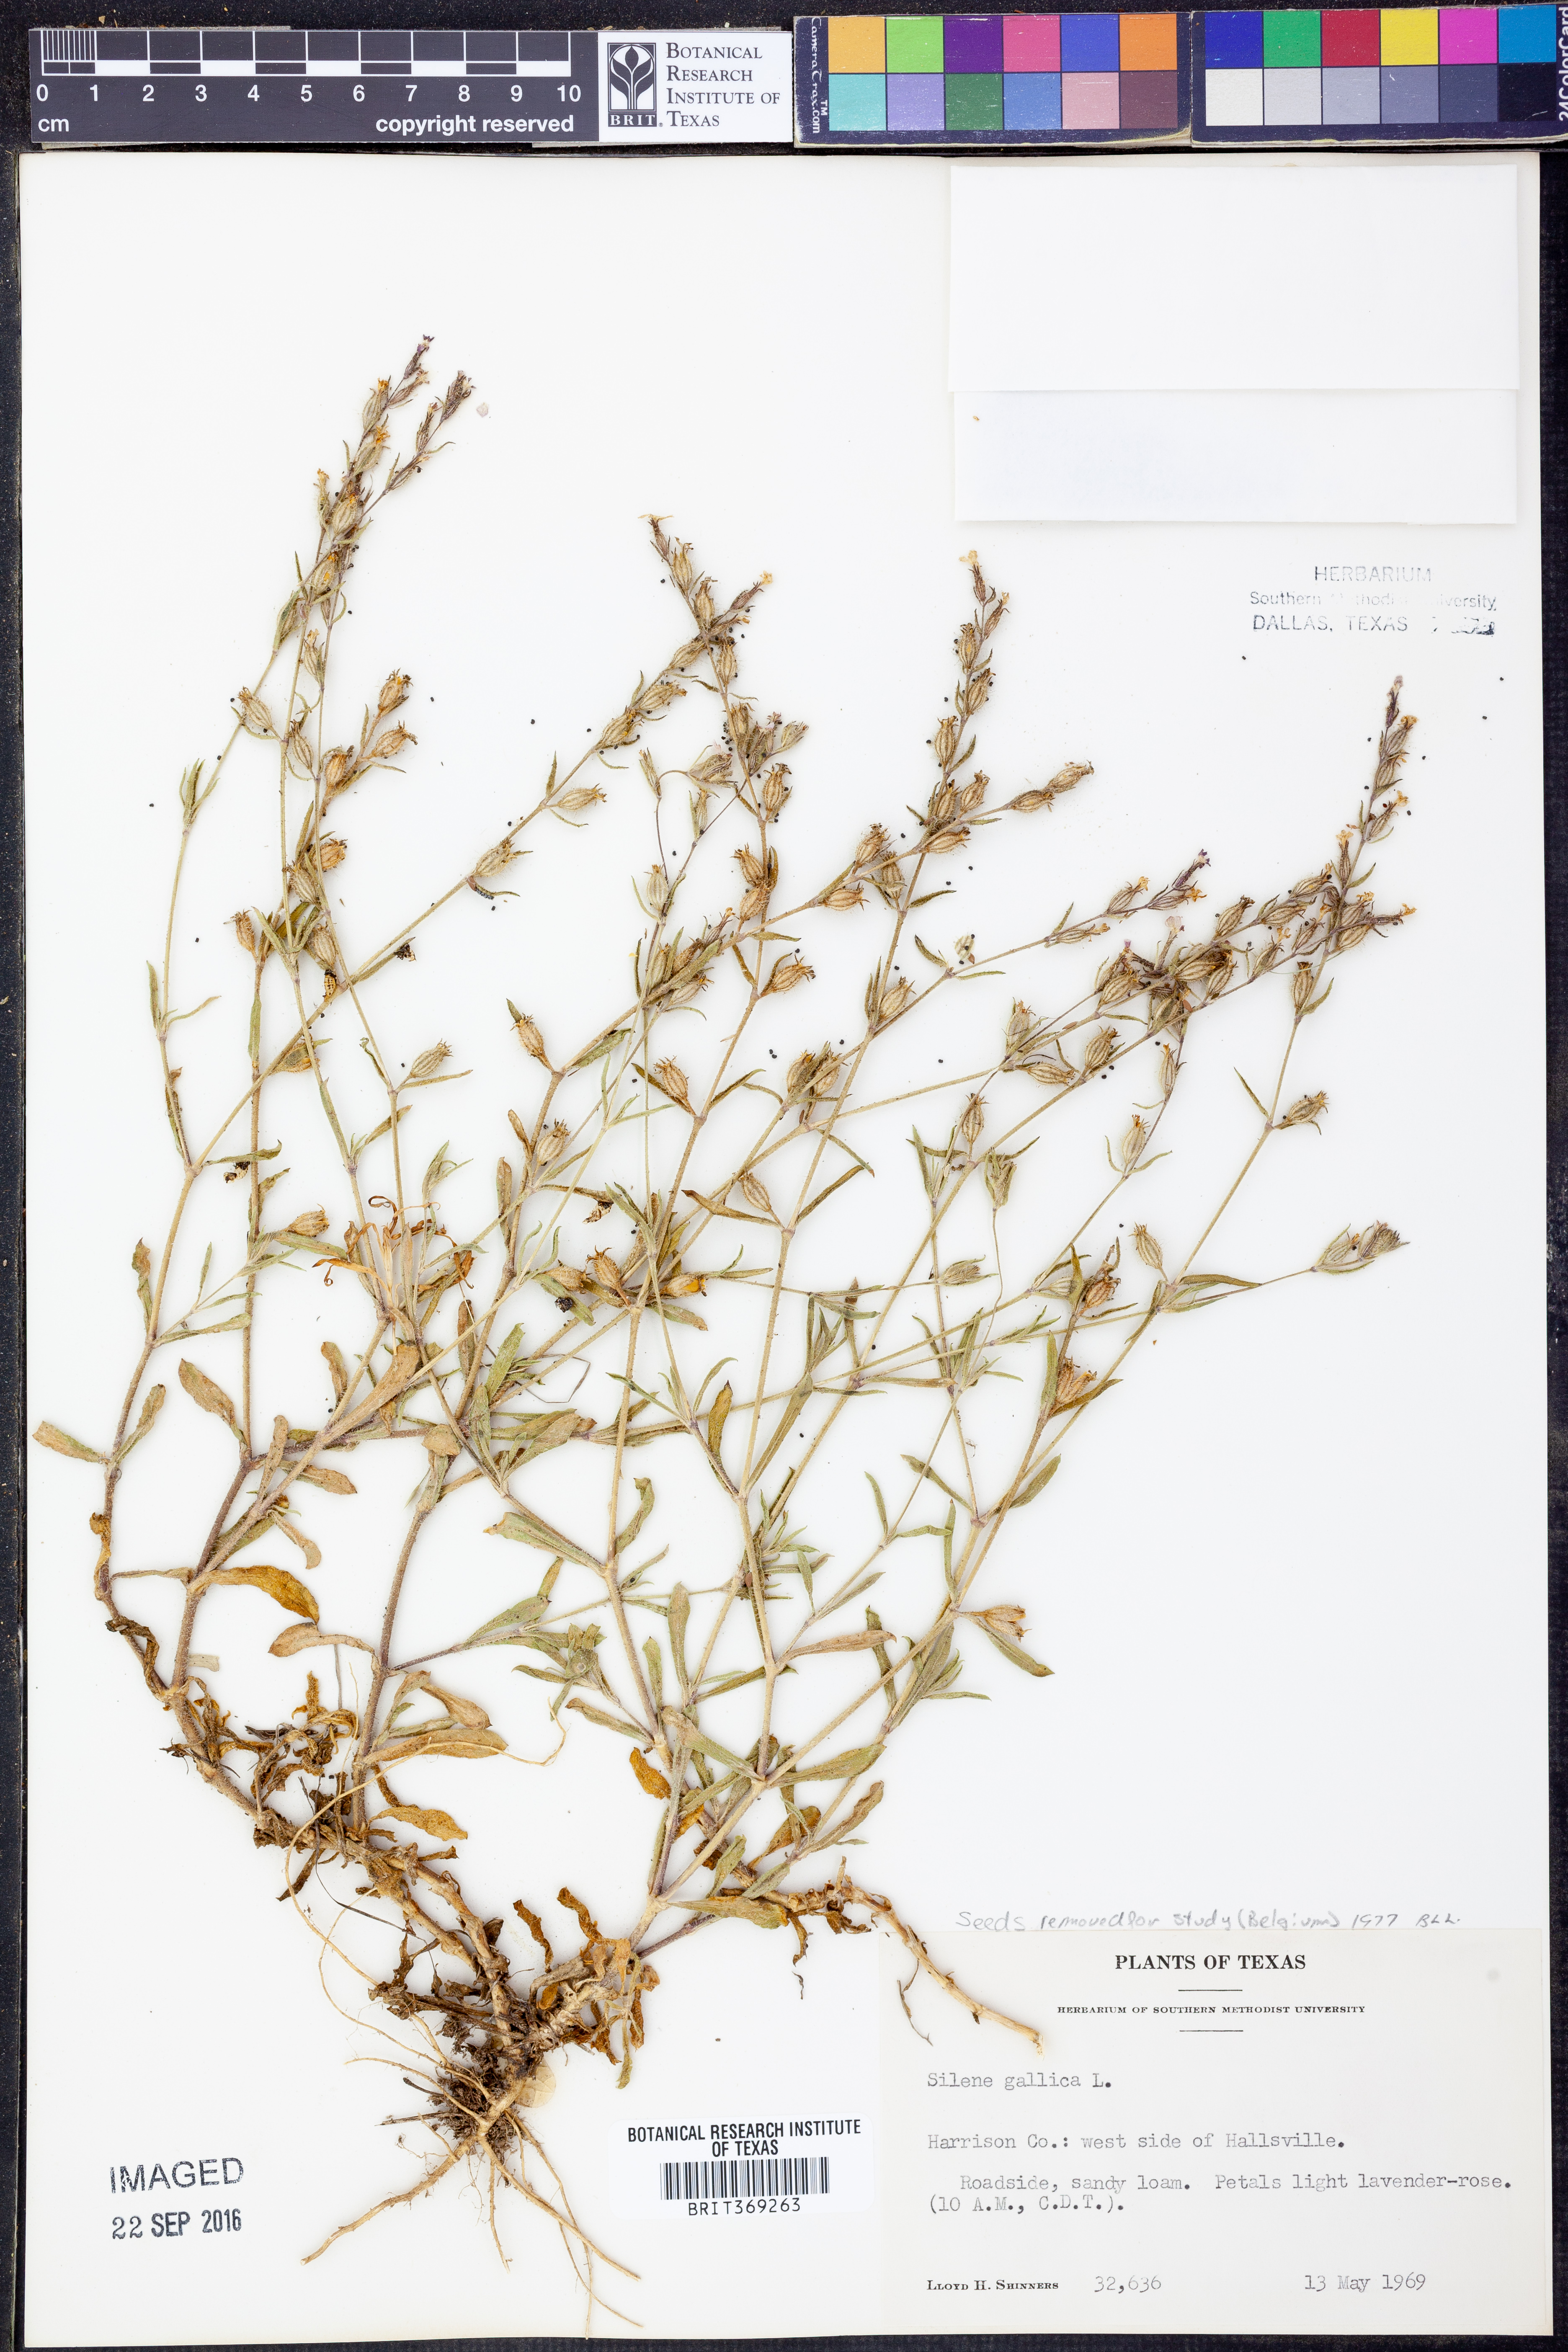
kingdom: Plantae
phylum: Tracheophyta
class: Magnoliopsida
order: Caryophyllales
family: Caryophyllaceae
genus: Silene
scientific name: Silene gallica
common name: Small-flowered catchfly
